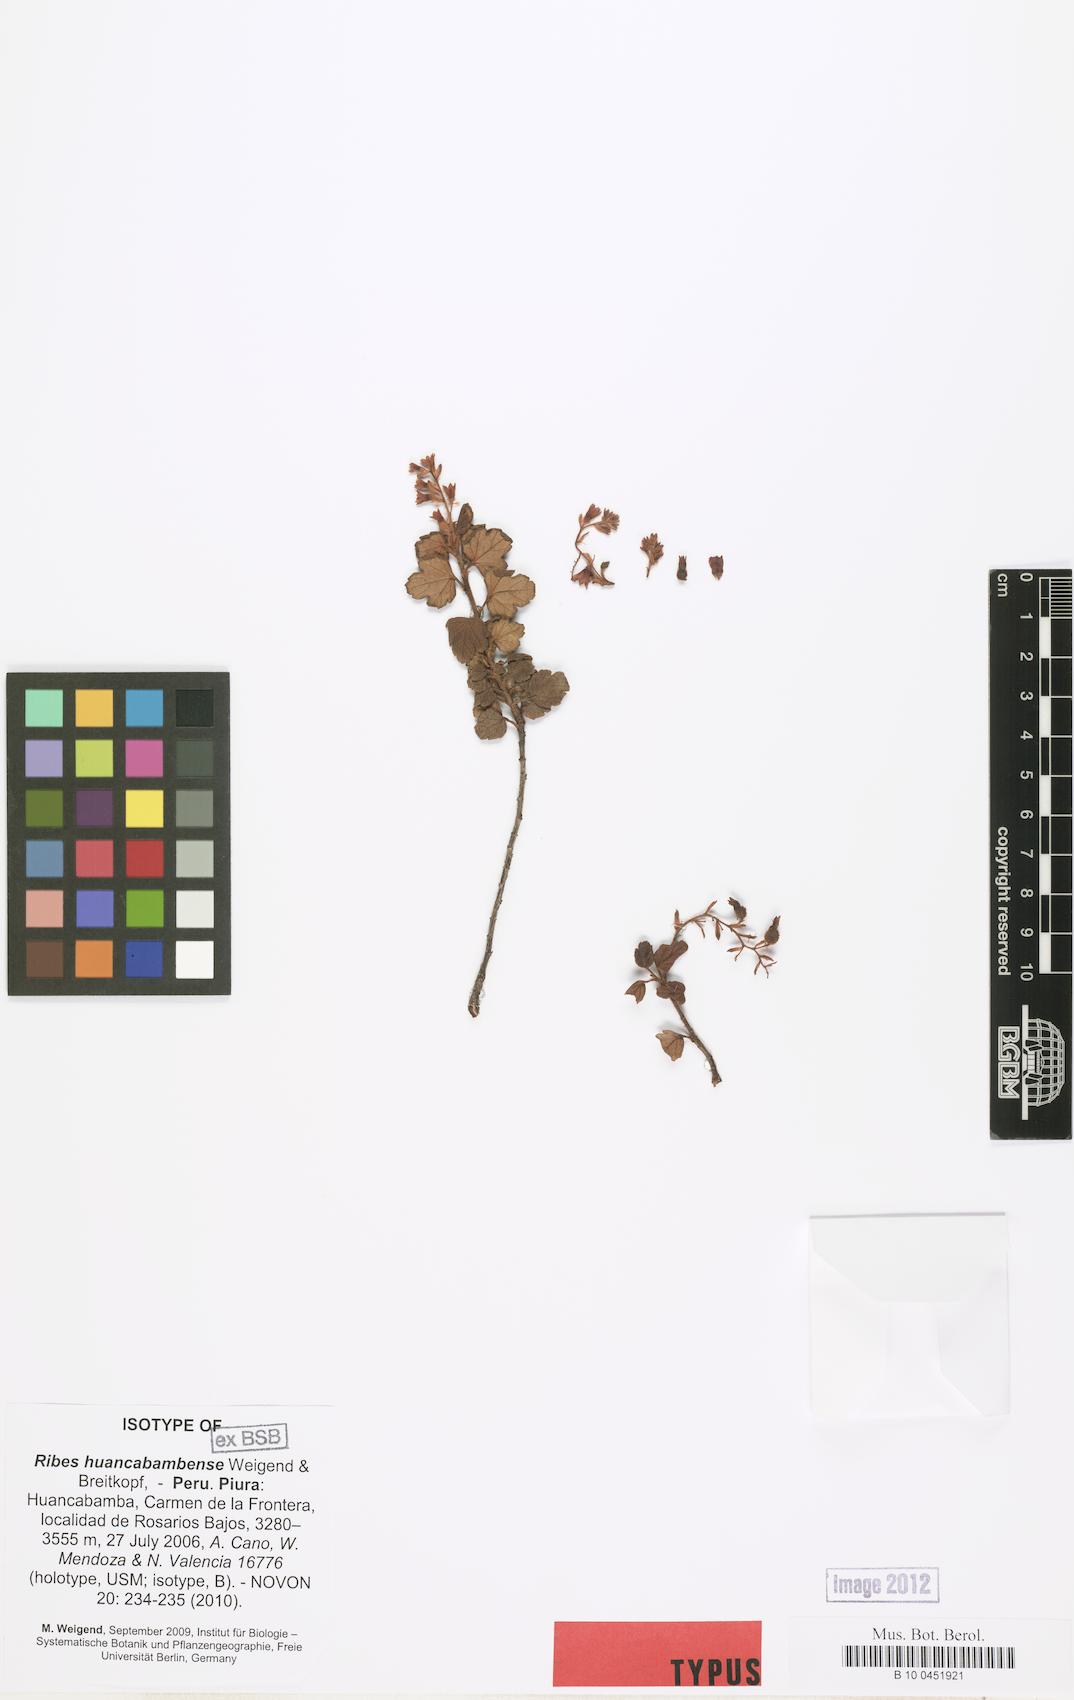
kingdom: Plantae
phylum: Tracheophyta
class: Magnoliopsida
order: Saxifragales
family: Grossulariaceae
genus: Ribes
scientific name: Ribes huancabambense
